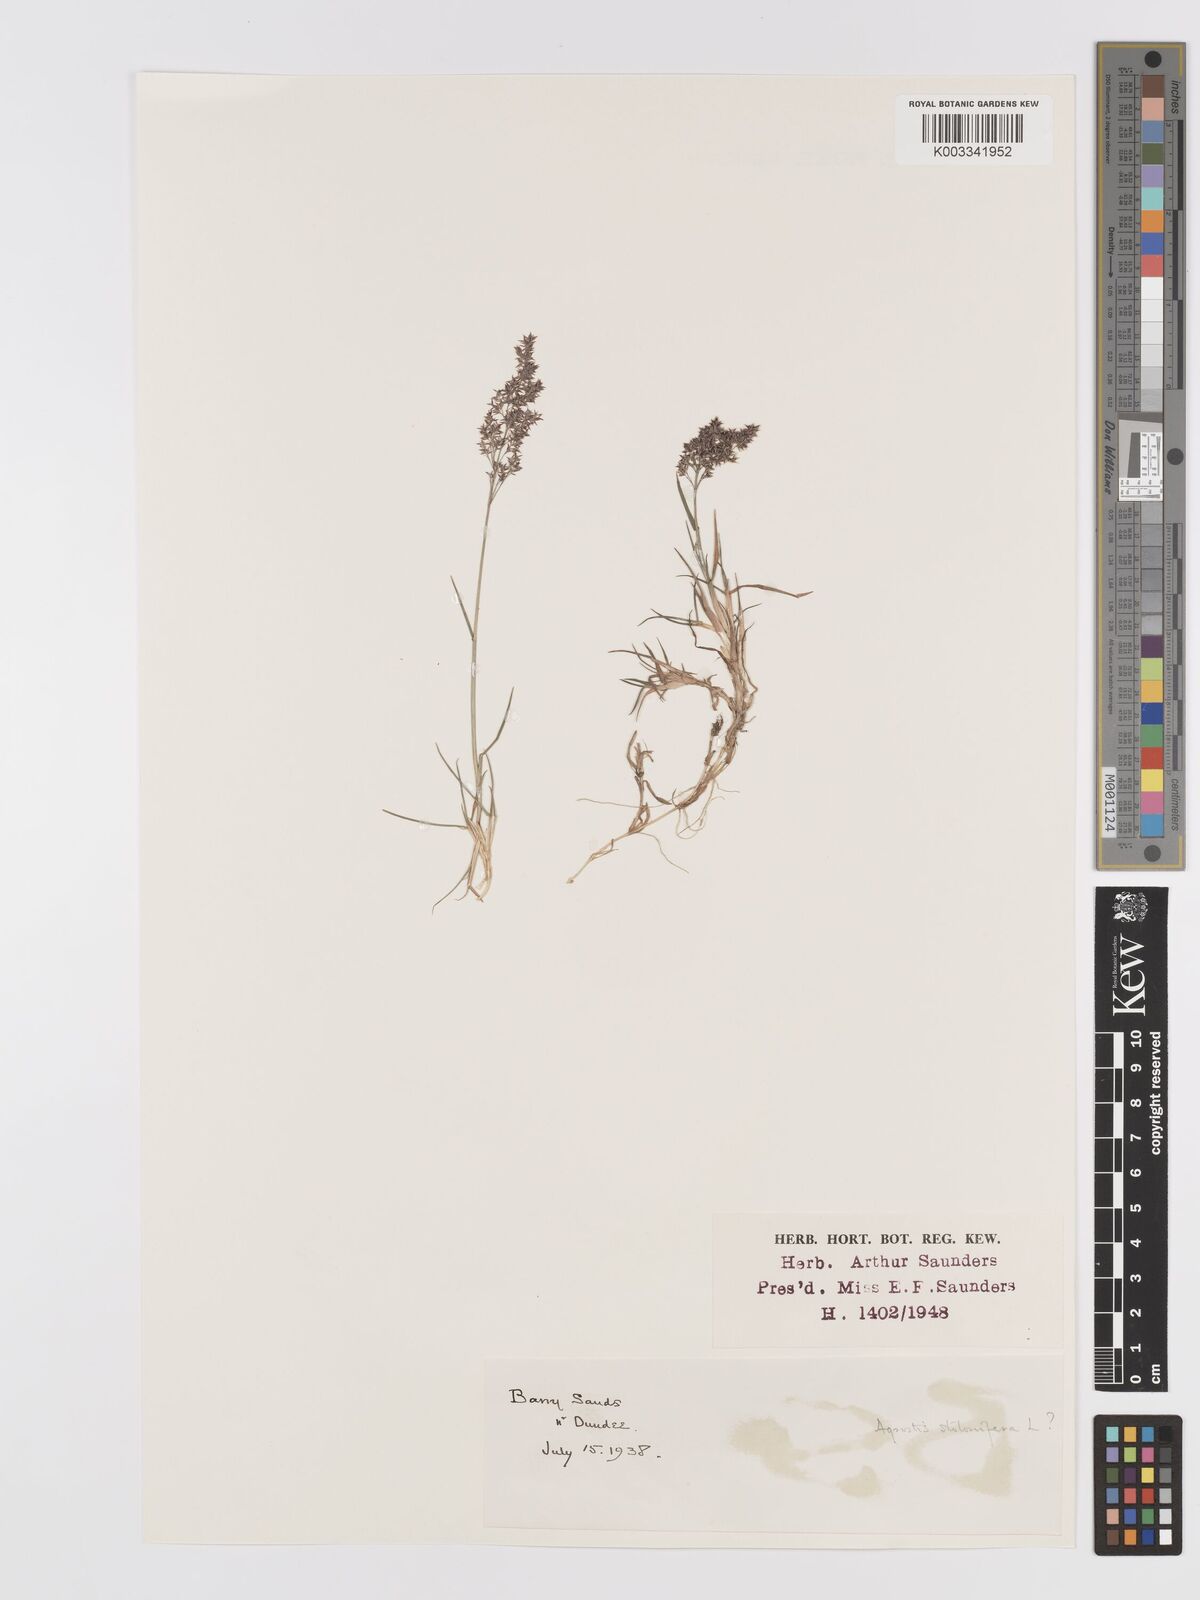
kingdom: Plantae
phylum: Tracheophyta
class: Liliopsida
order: Poales
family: Poaceae
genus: Agrostis
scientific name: Agrostis stolonifera
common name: Creeping bentgrass
